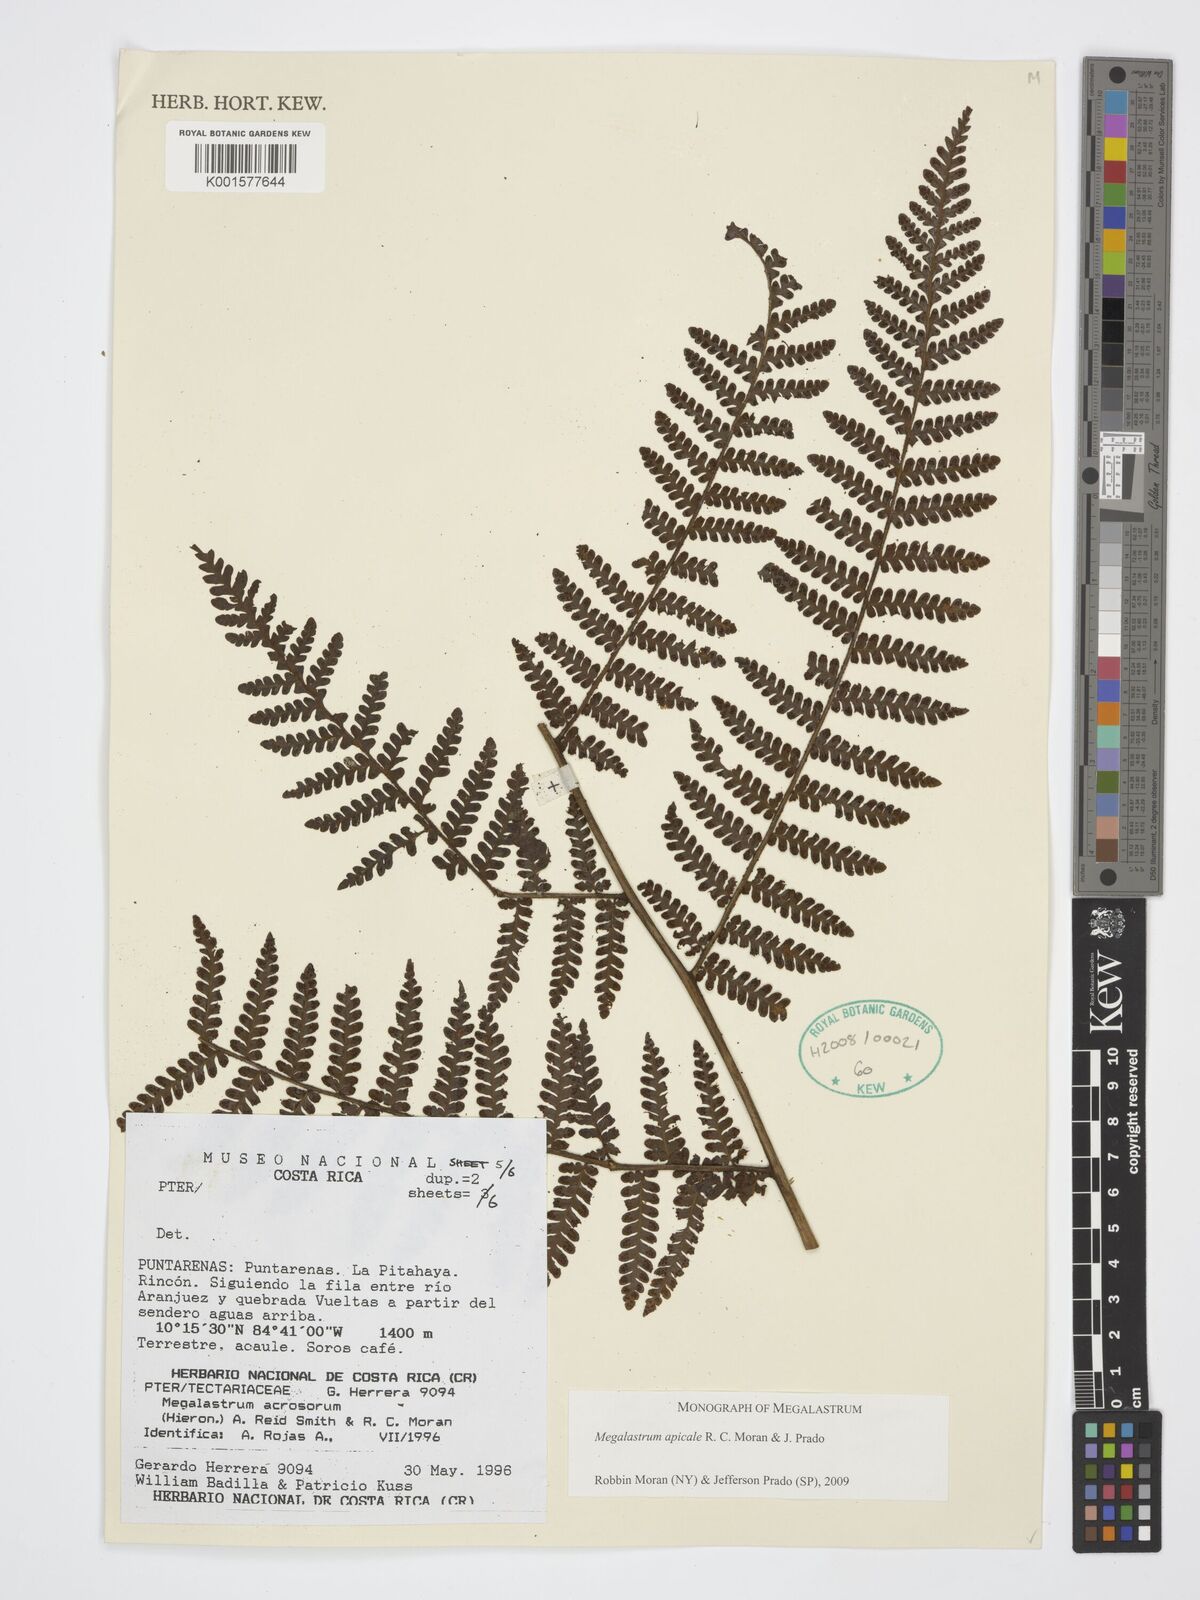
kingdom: Plantae
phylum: Tracheophyta
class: Polypodiopsida
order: Polypodiales
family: Dryopteridaceae
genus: Megalastrum
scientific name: Megalastrum apicale
